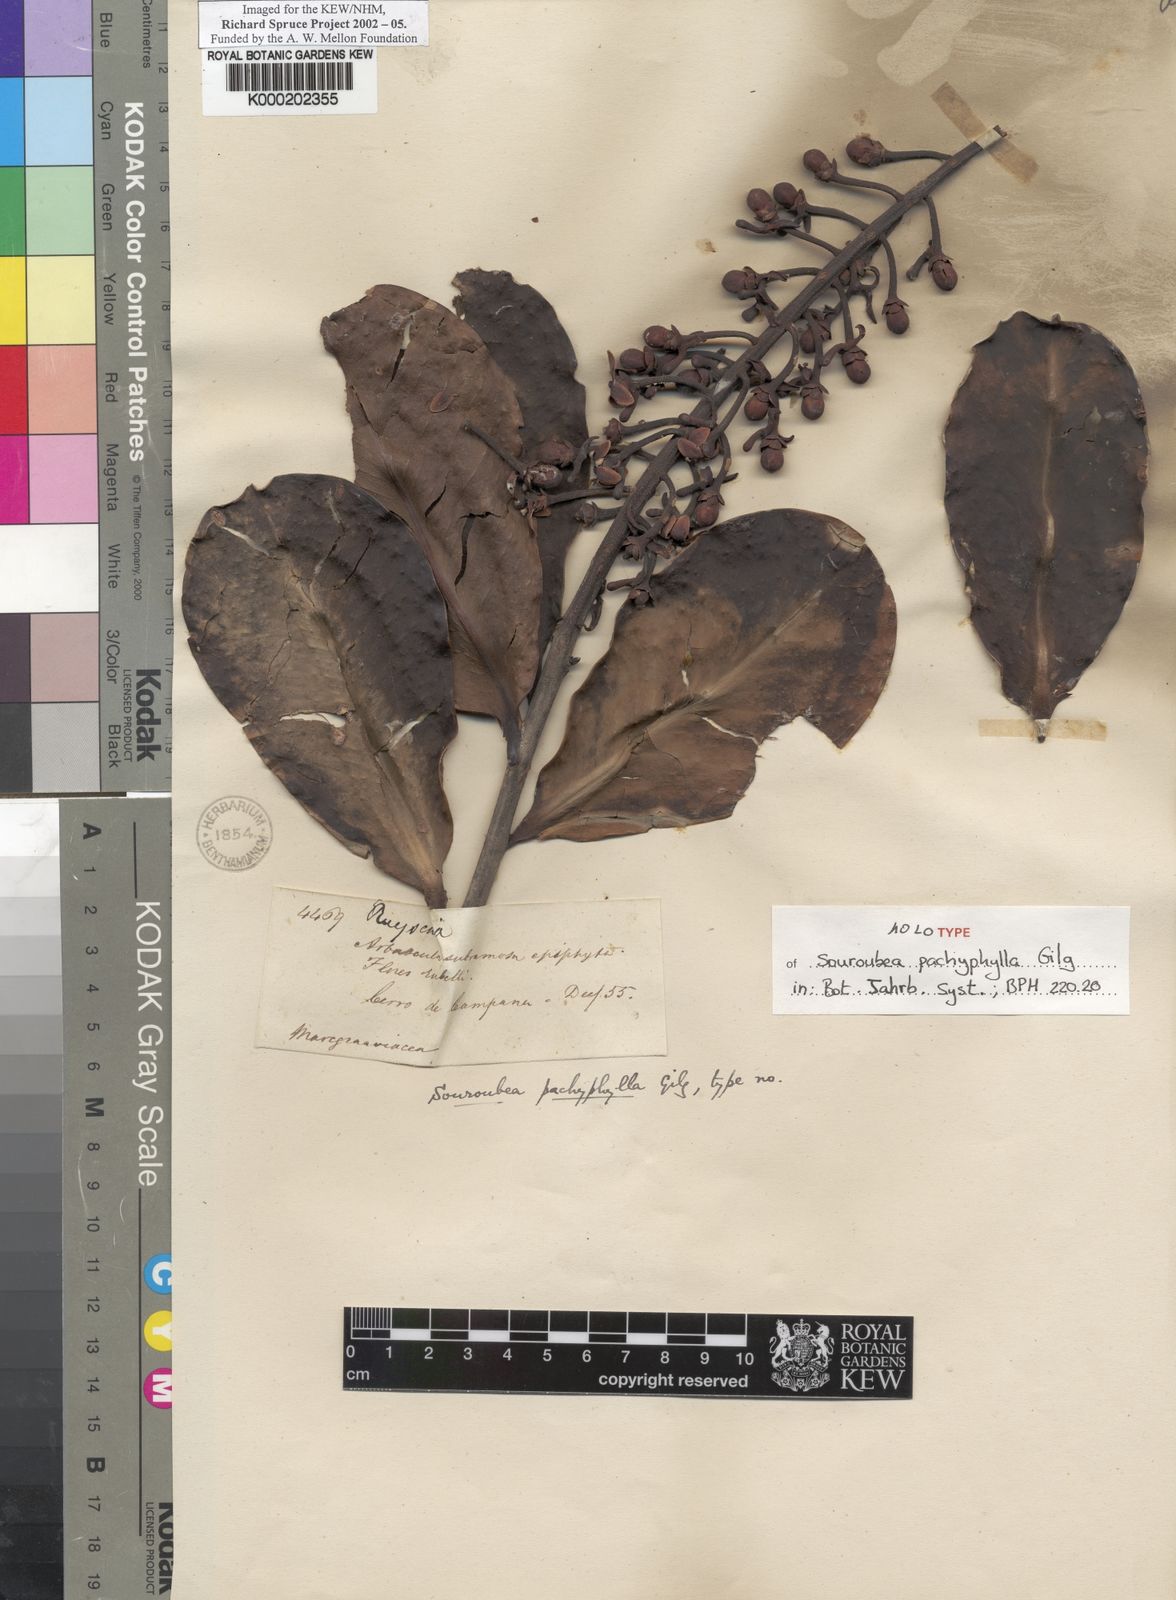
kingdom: Plantae
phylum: Tracheophyta
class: Magnoliopsida
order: Ericales
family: Marcgraviaceae
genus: Souroubea
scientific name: Souroubea pachyphylla
